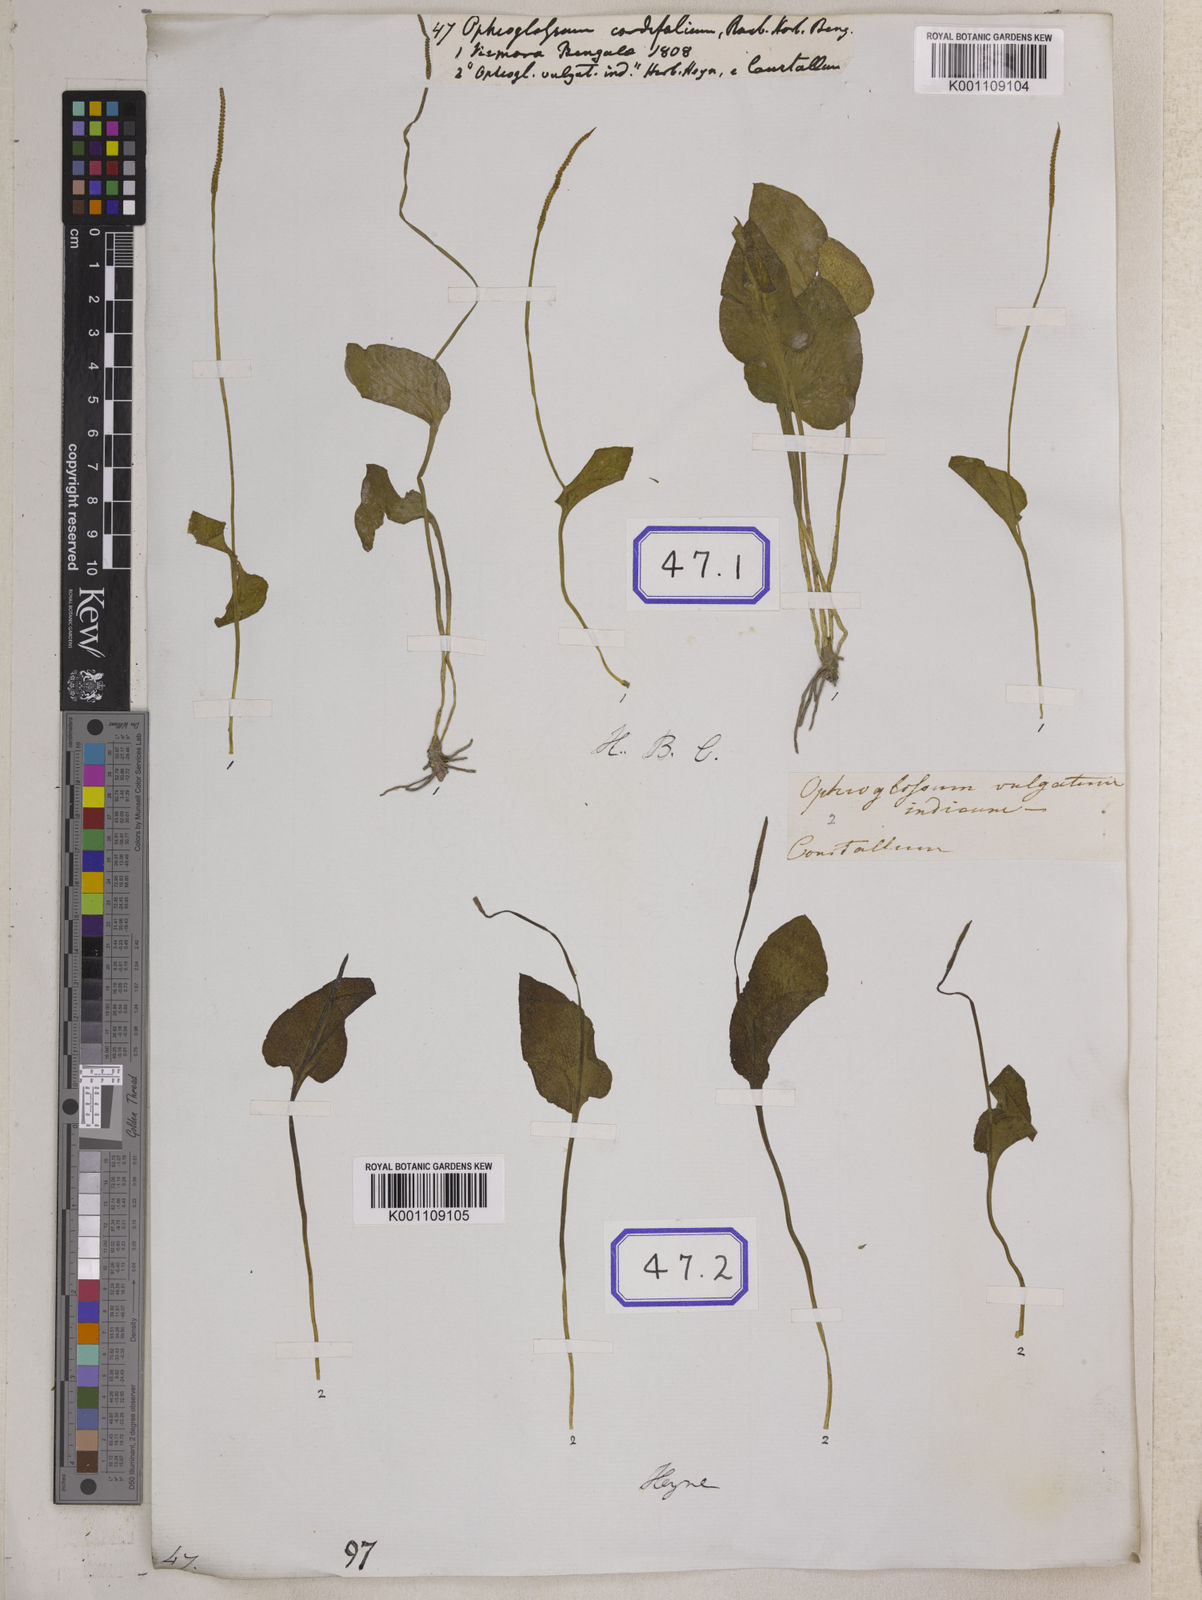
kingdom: Plantae
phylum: Tracheophyta
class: Polypodiopsida
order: Ophioglossales
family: Ophioglossaceae
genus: Ophioglossum
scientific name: Ophioglossum reticulatum
